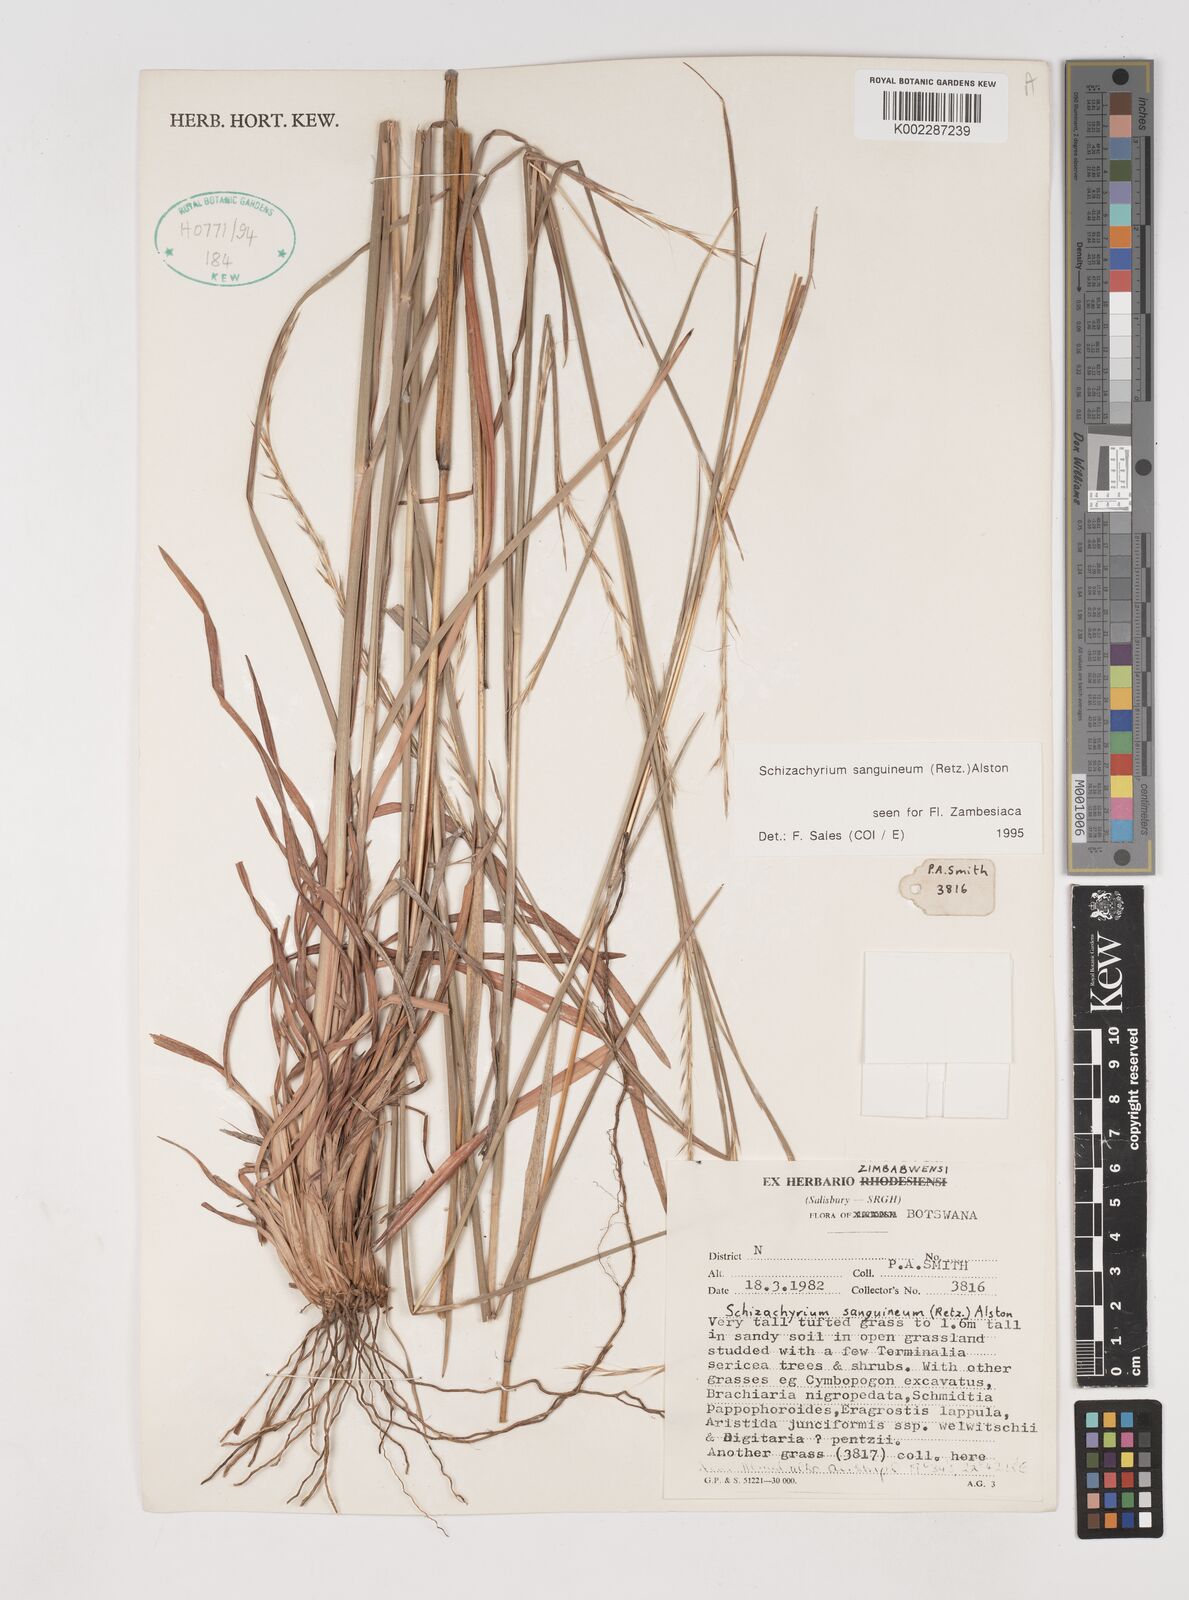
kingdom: Plantae
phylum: Tracheophyta
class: Liliopsida
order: Poales
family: Poaceae
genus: Schizachyrium
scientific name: Schizachyrium sanguineum
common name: Crimson bluestem
